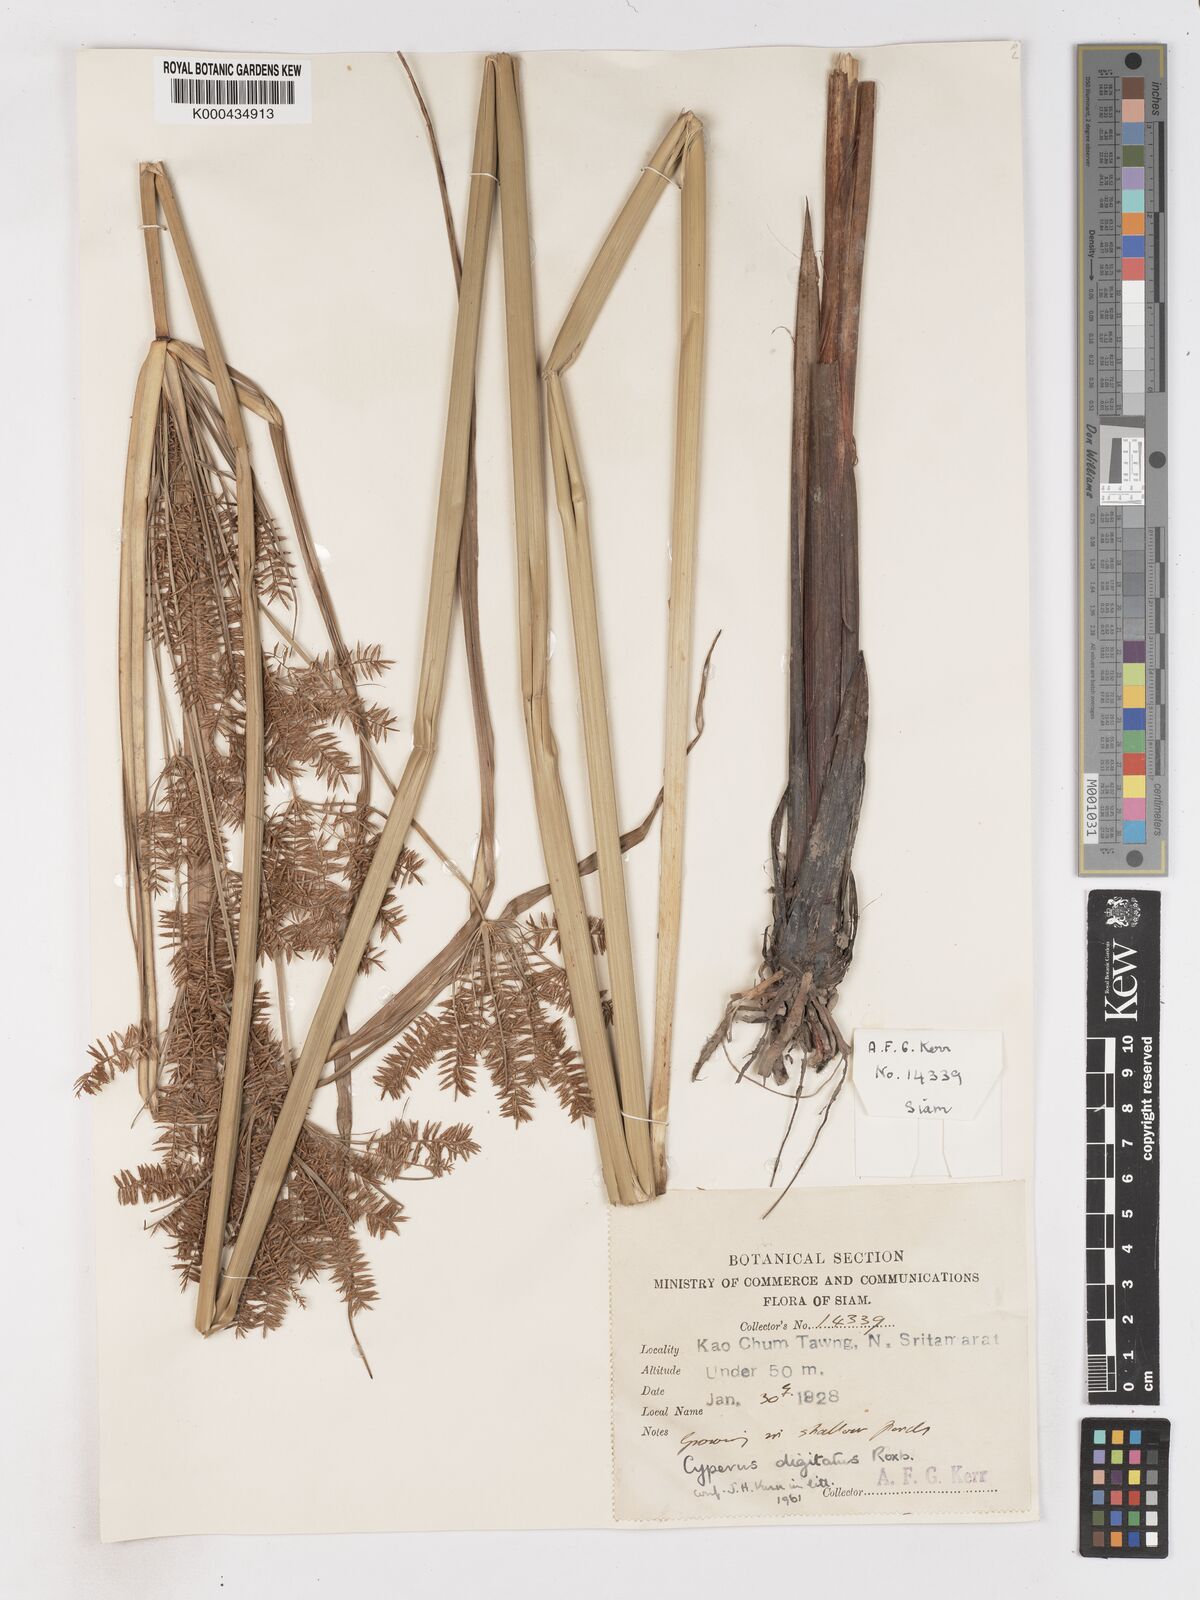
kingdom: Plantae
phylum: Tracheophyta
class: Liliopsida
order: Poales
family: Cyperaceae
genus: Cyperus
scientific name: Cyperus digitatus
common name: Finger flatsedge
